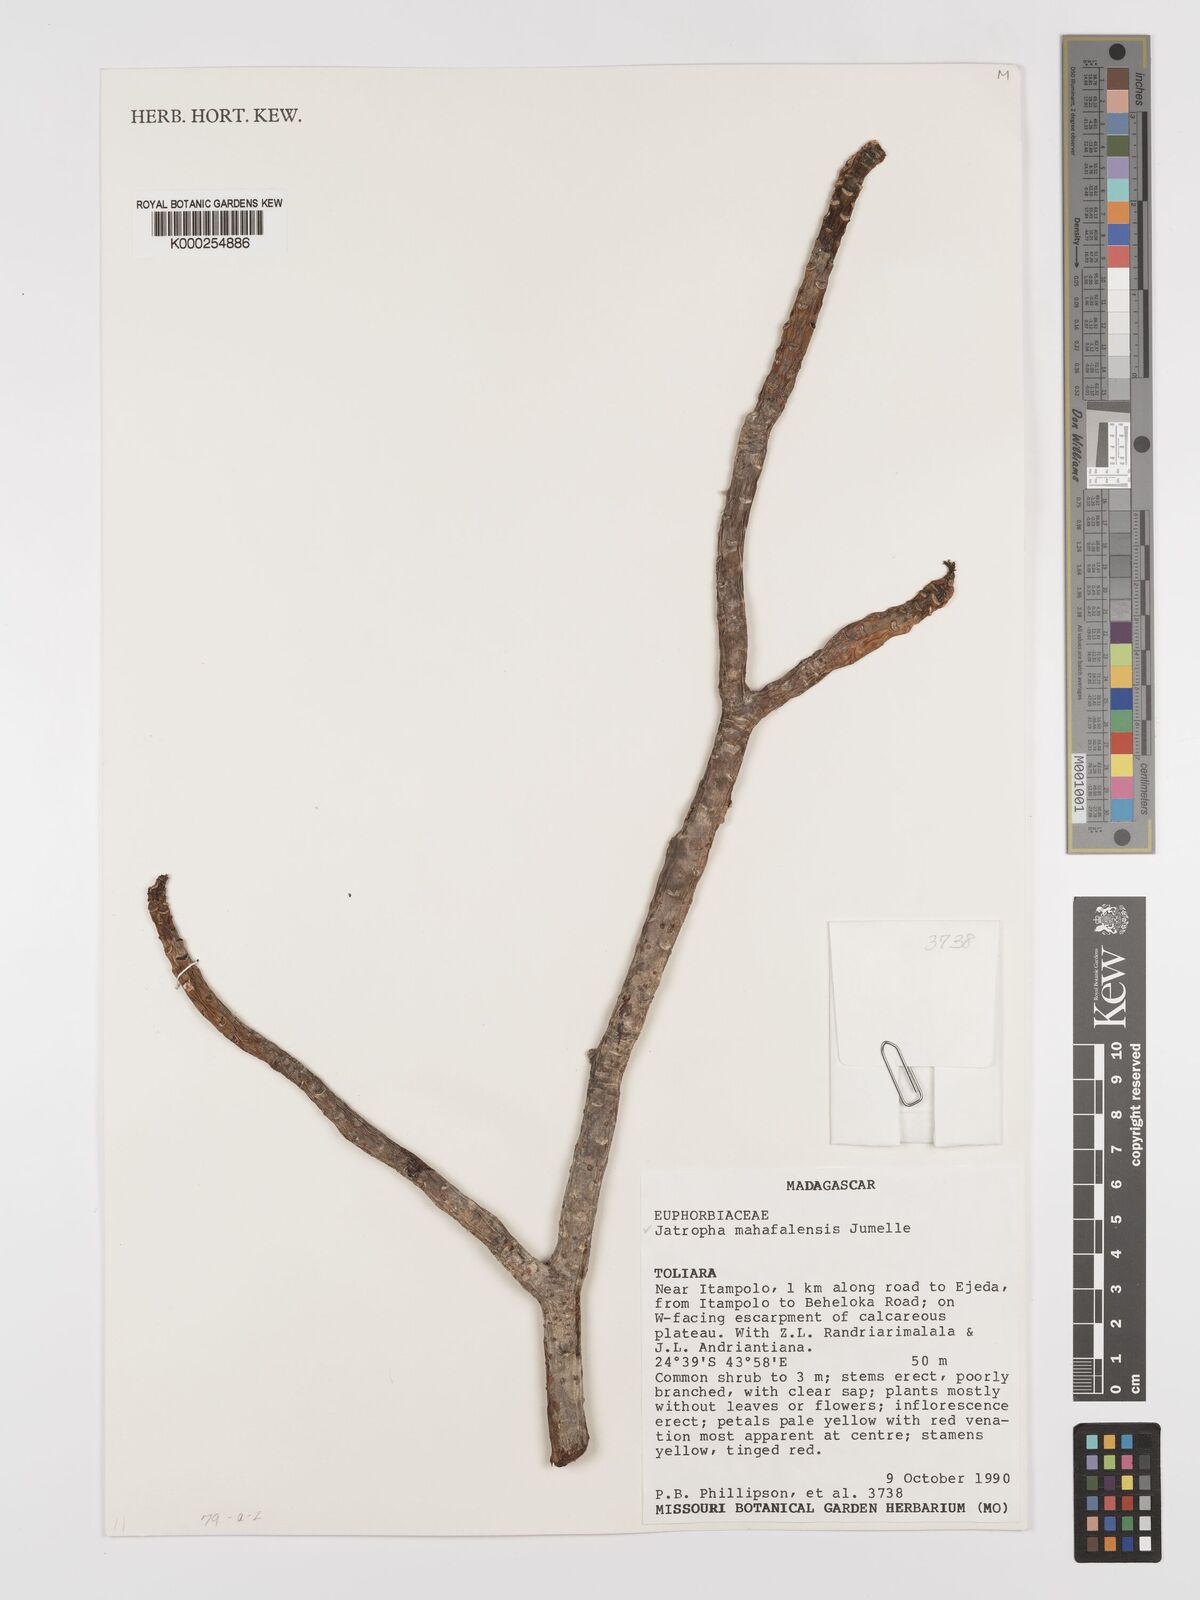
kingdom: Plantae
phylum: Tracheophyta
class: Magnoliopsida
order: Malpighiales
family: Euphorbiaceae
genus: Jatropha
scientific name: Jatropha mahafalensis
